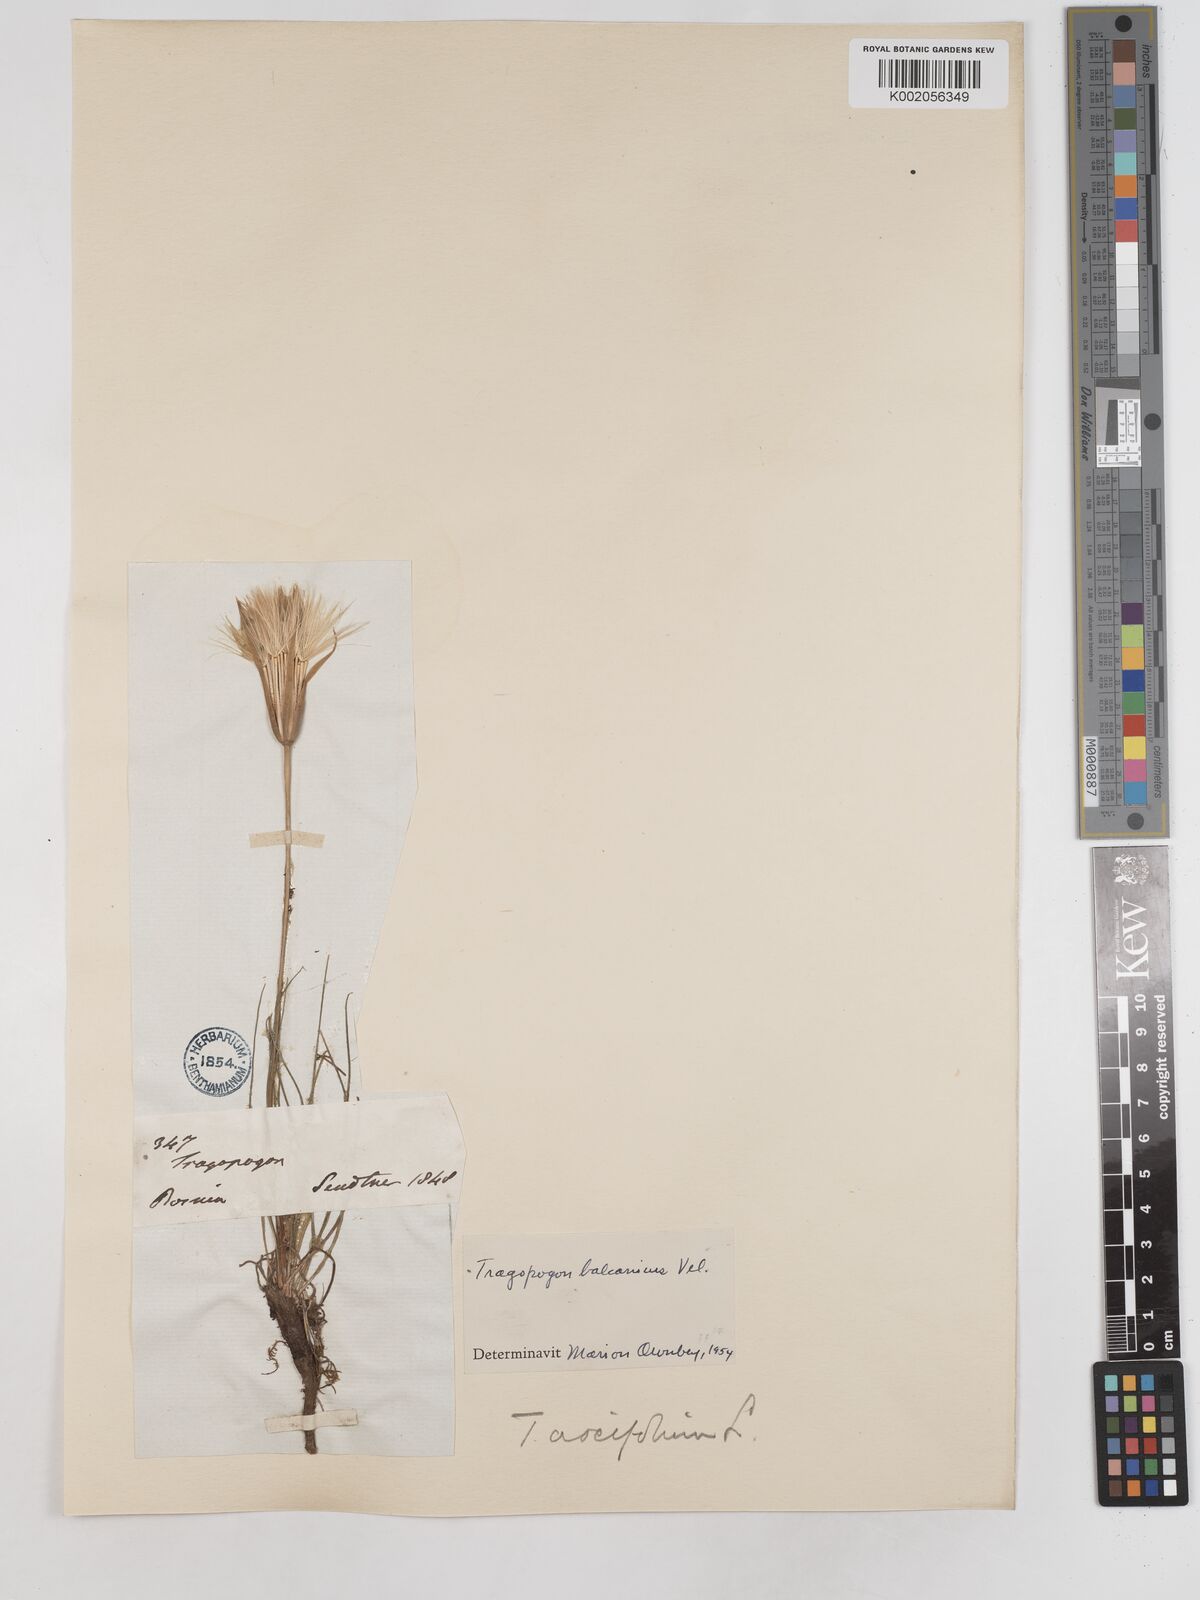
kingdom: Plantae
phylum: Tracheophyta
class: Magnoliopsida
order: Asterales
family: Asteraceae
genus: Tragopogon
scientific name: Tragopogon balcanicus
